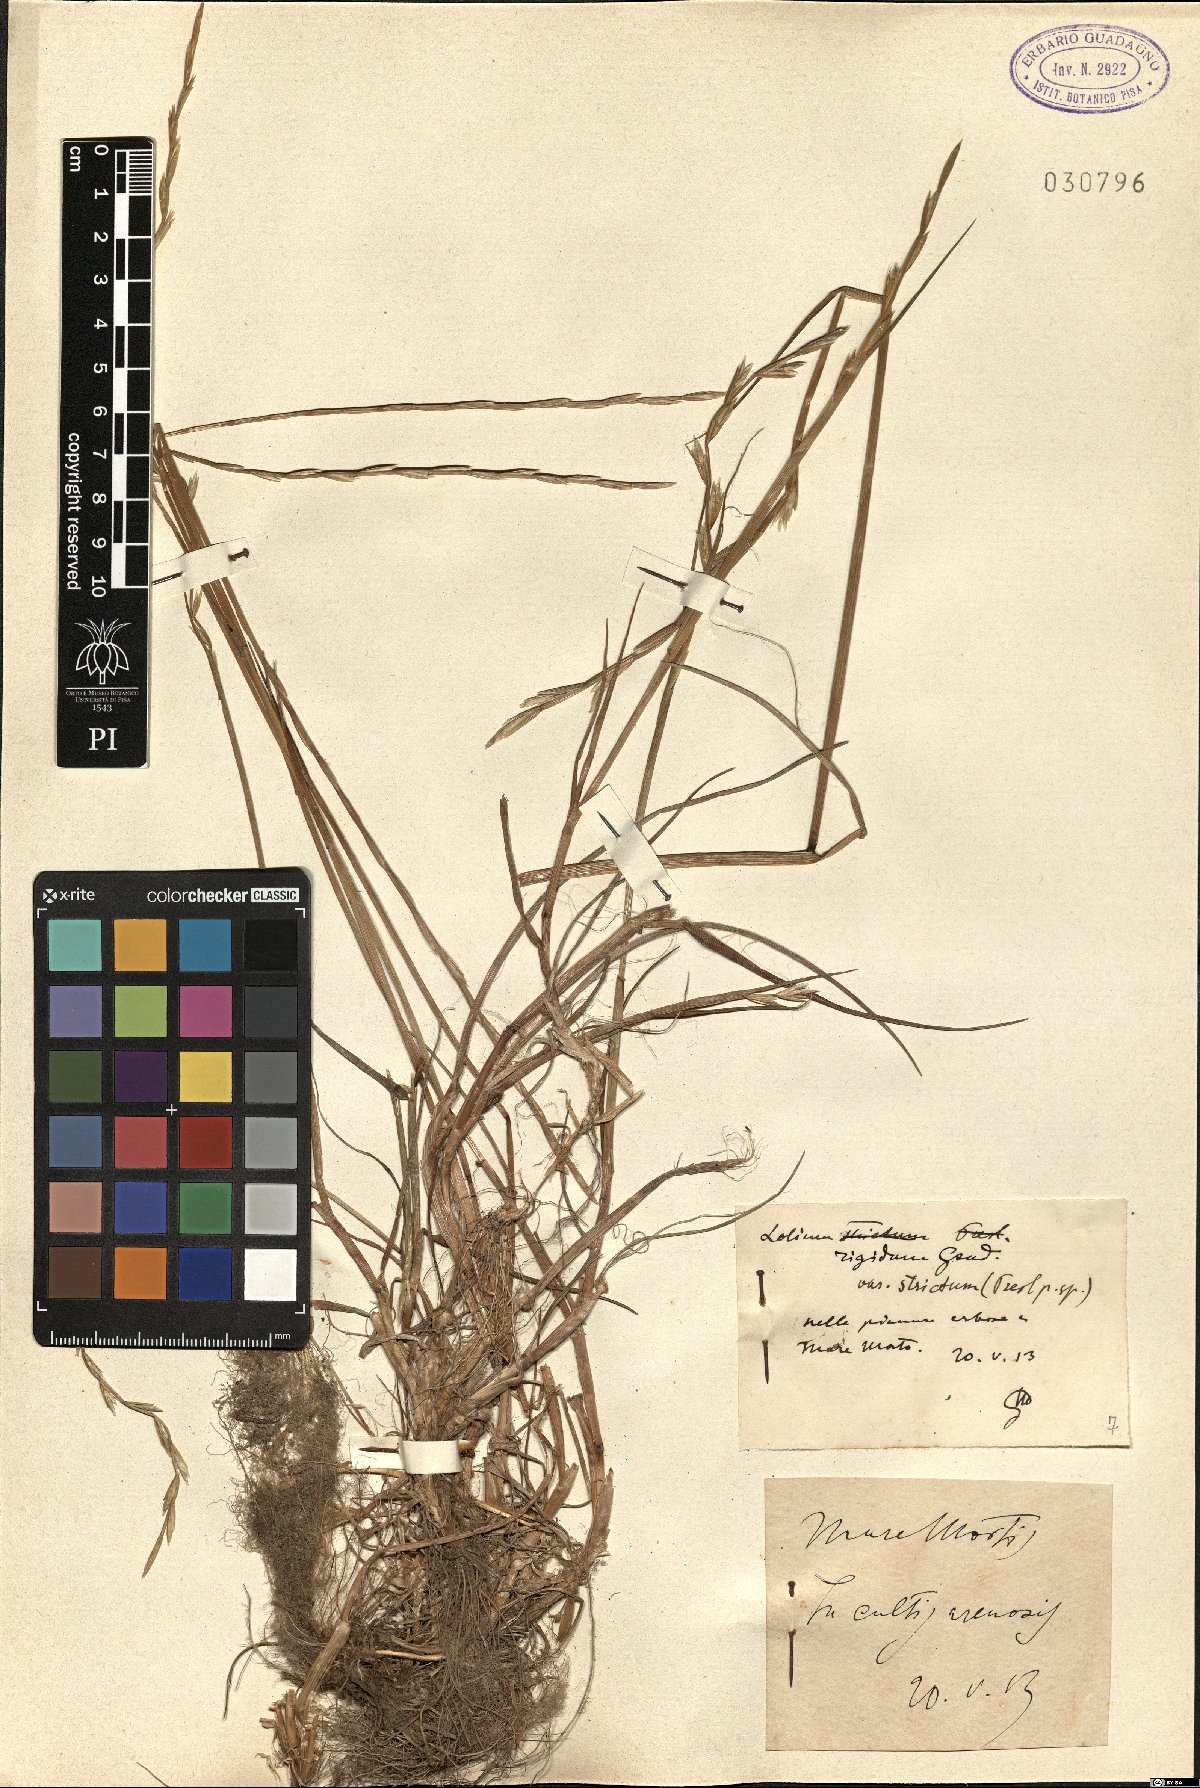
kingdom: Plantae
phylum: Tracheophyta
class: Liliopsida
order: Poales
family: Poaceae
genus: Lolium
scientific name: Lolium rigidum
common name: Wimmera ryegrass
